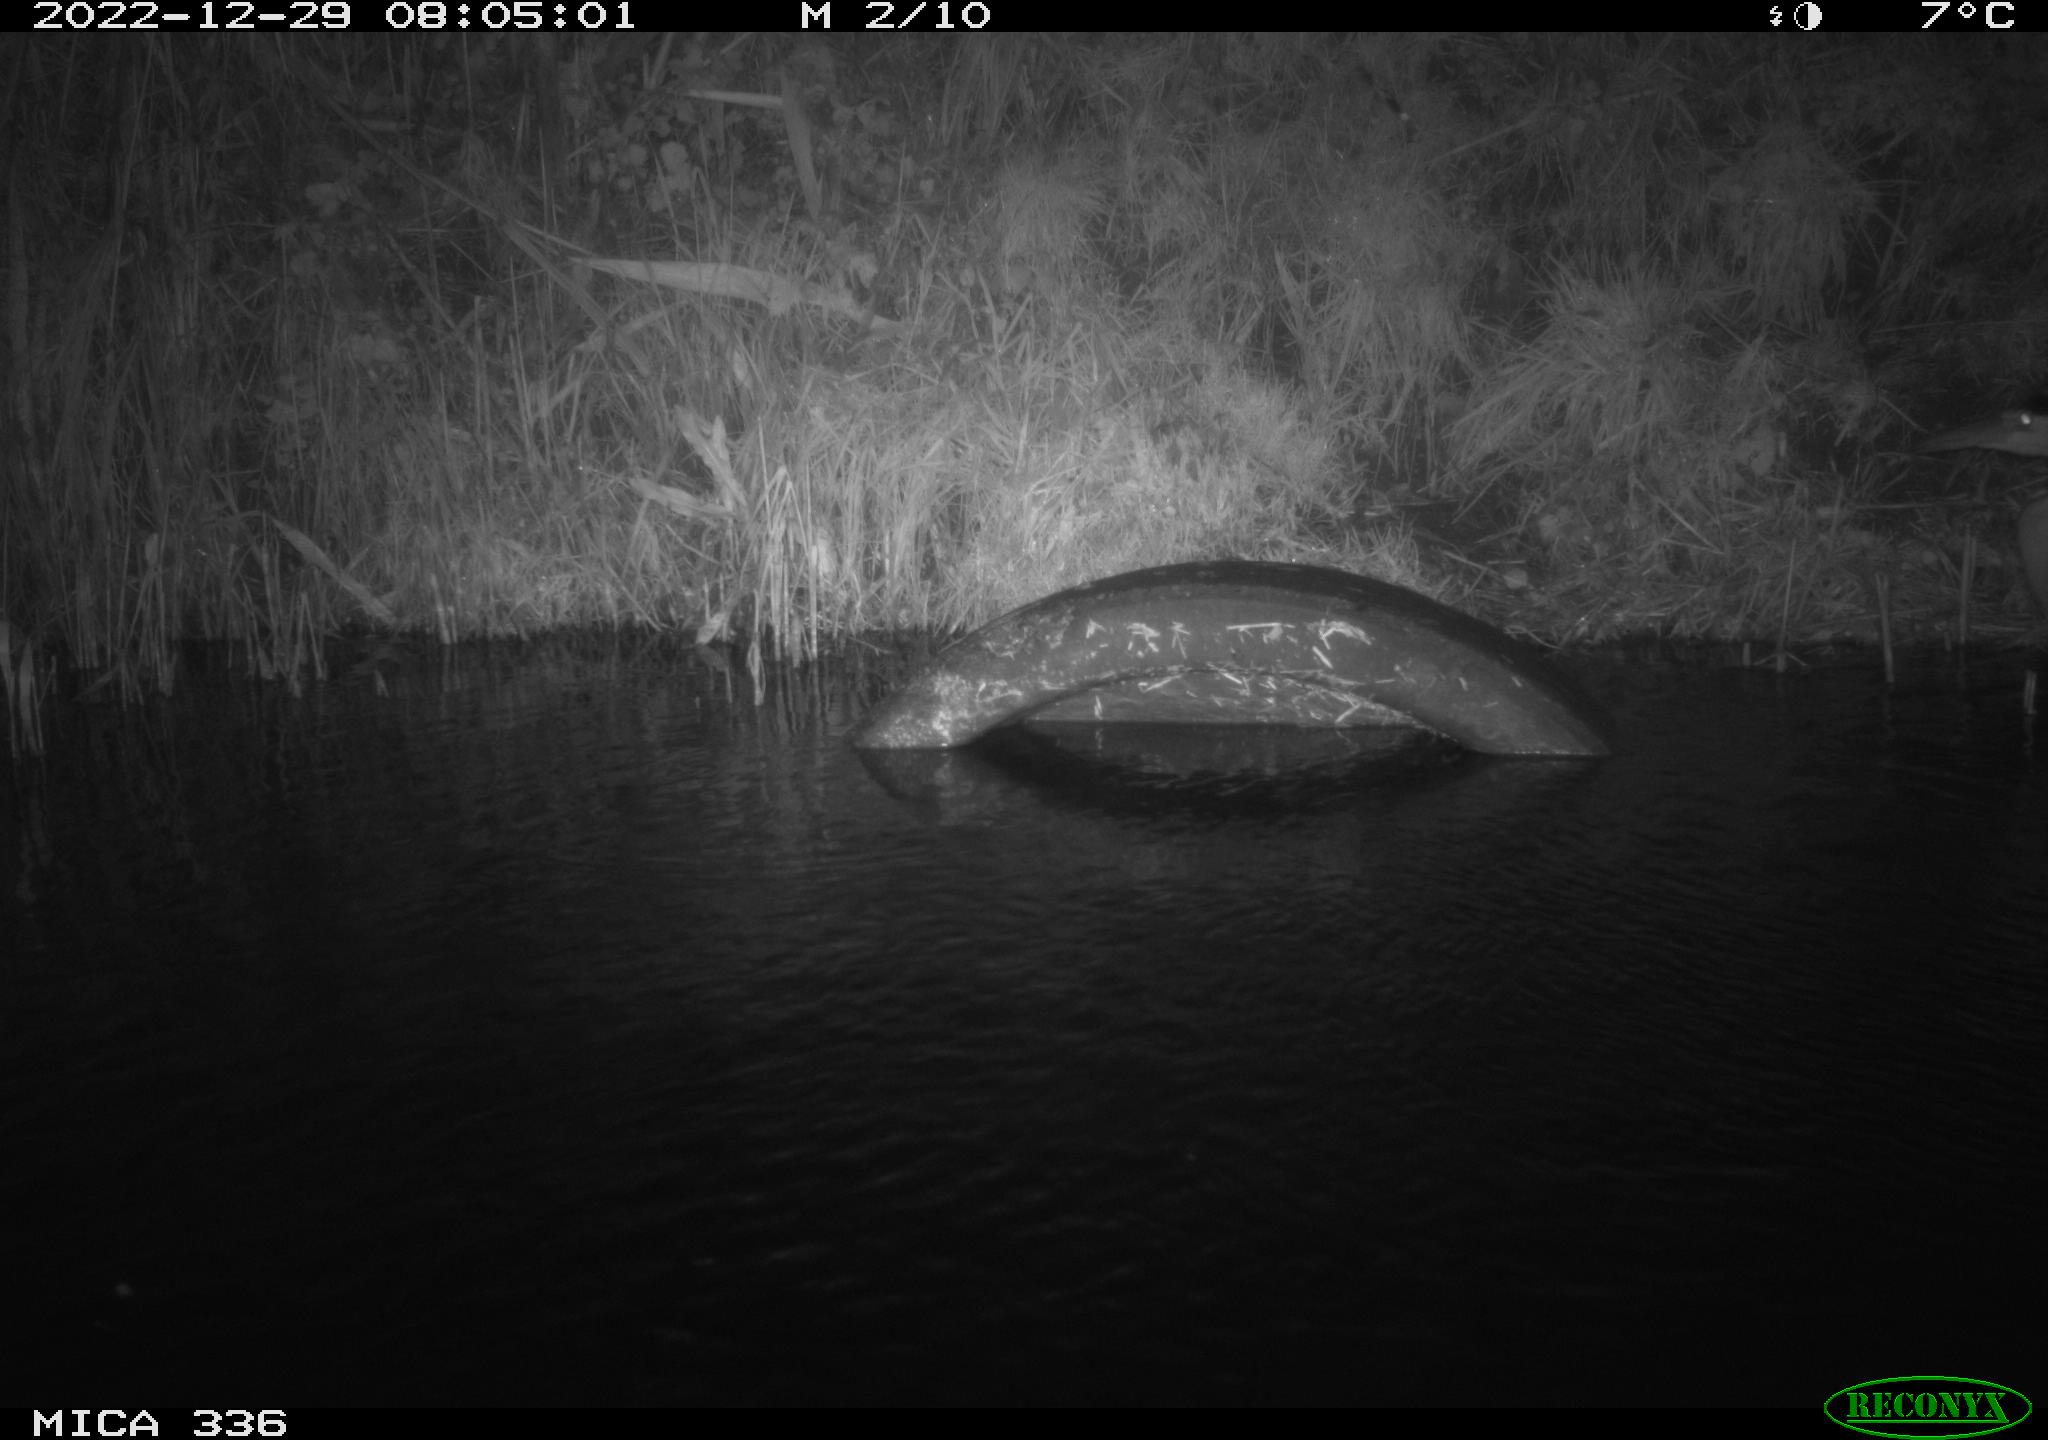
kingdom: Animalia
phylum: Chordata
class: Aves
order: Pelecaniformes
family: Ardeidae
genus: Ardea
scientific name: Ardea cinerea
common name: Grey heron
